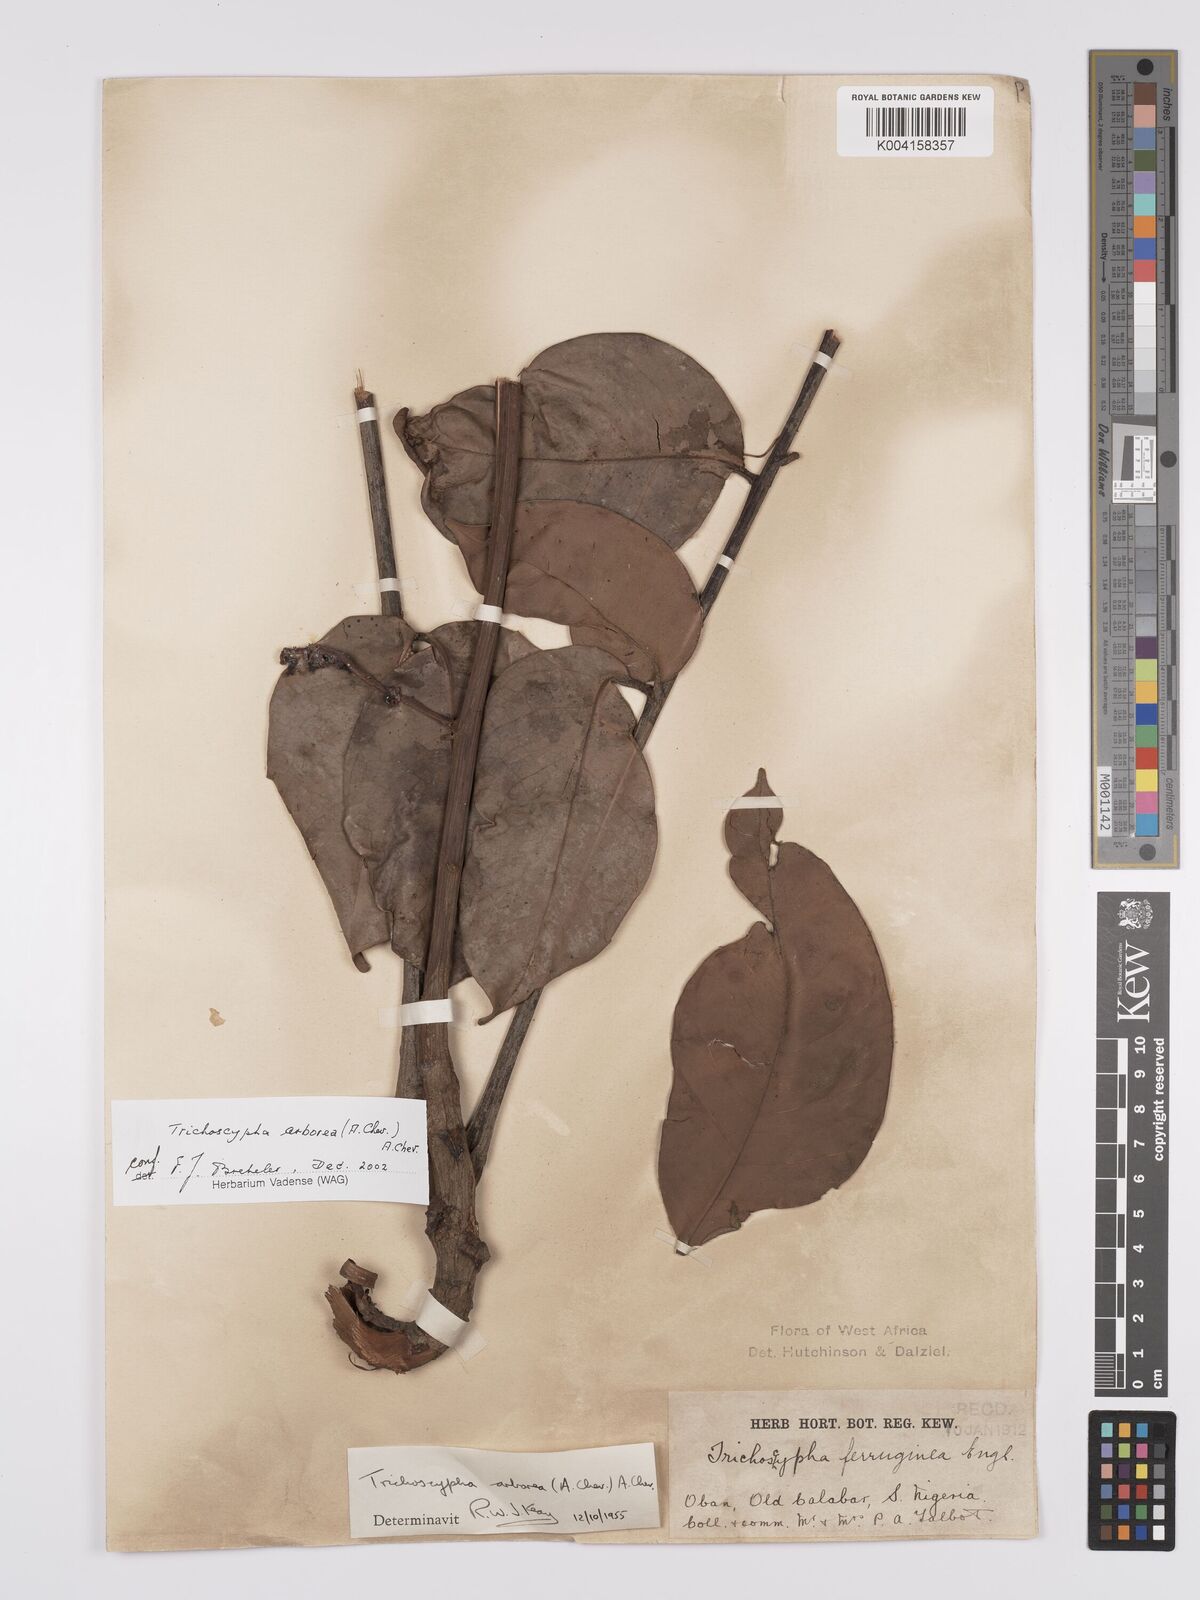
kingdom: Plantae
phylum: Tracheophyta
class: Magnoliopsida
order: Sapindales
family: Anacardiaceae
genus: Trichoscypha
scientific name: Trichoscypha arborea
